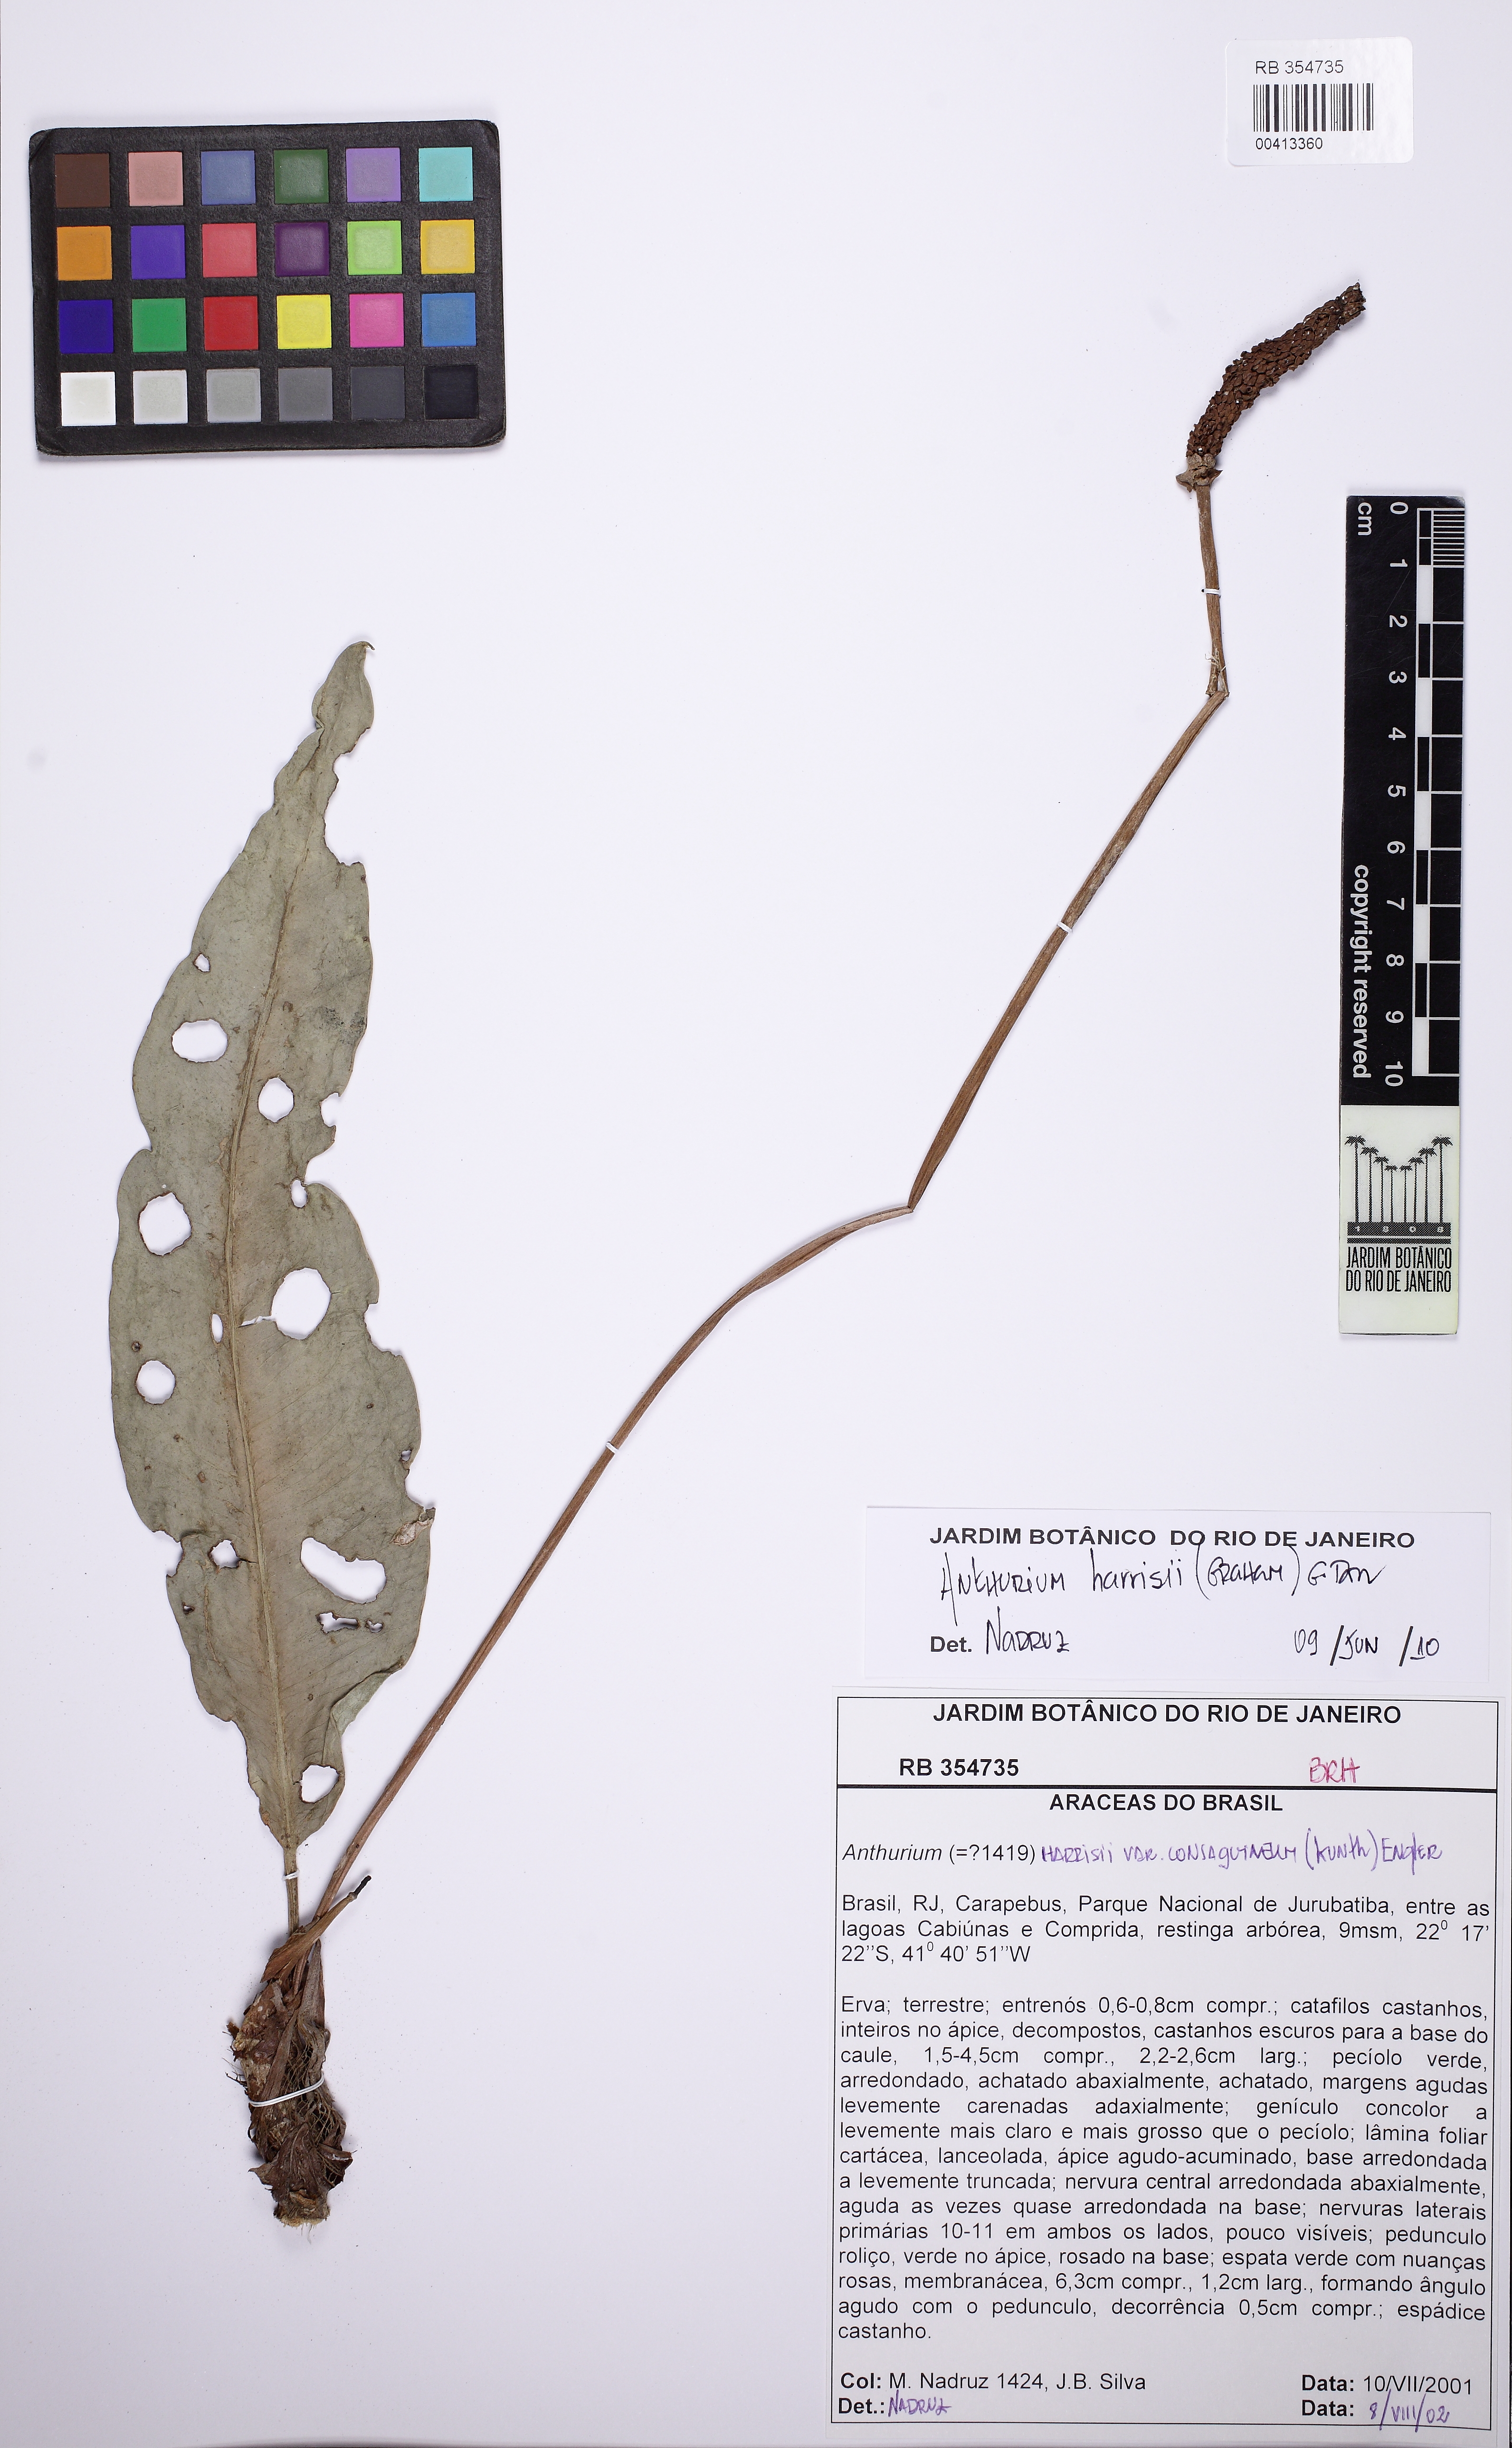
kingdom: Plantae
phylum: Tracheophyta
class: Liliopsida
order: Alismatales
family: Araceae
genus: Anthurium
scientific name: Anthurium harrisii
